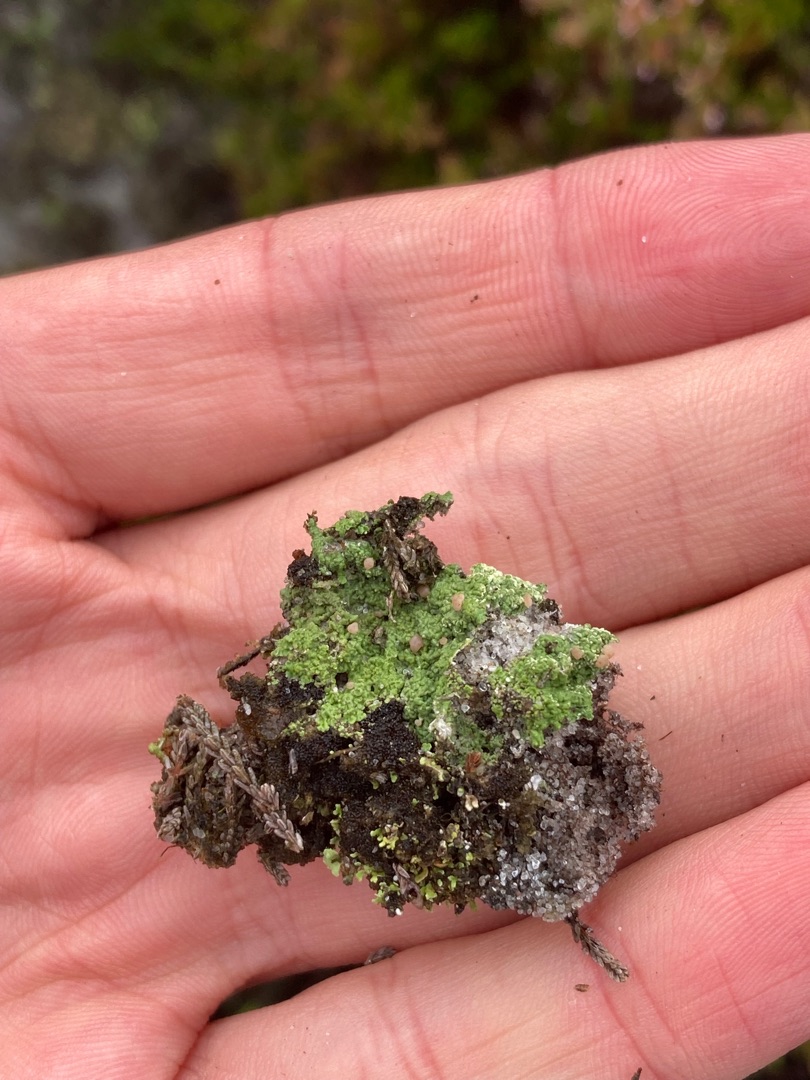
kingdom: Fungi
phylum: Ascomycota
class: Lecanoromycetes
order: Baeomycetales
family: Baeomycetaceae
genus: Baeomyces
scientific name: Baeomyces rufus
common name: Rødbrun svampelav
